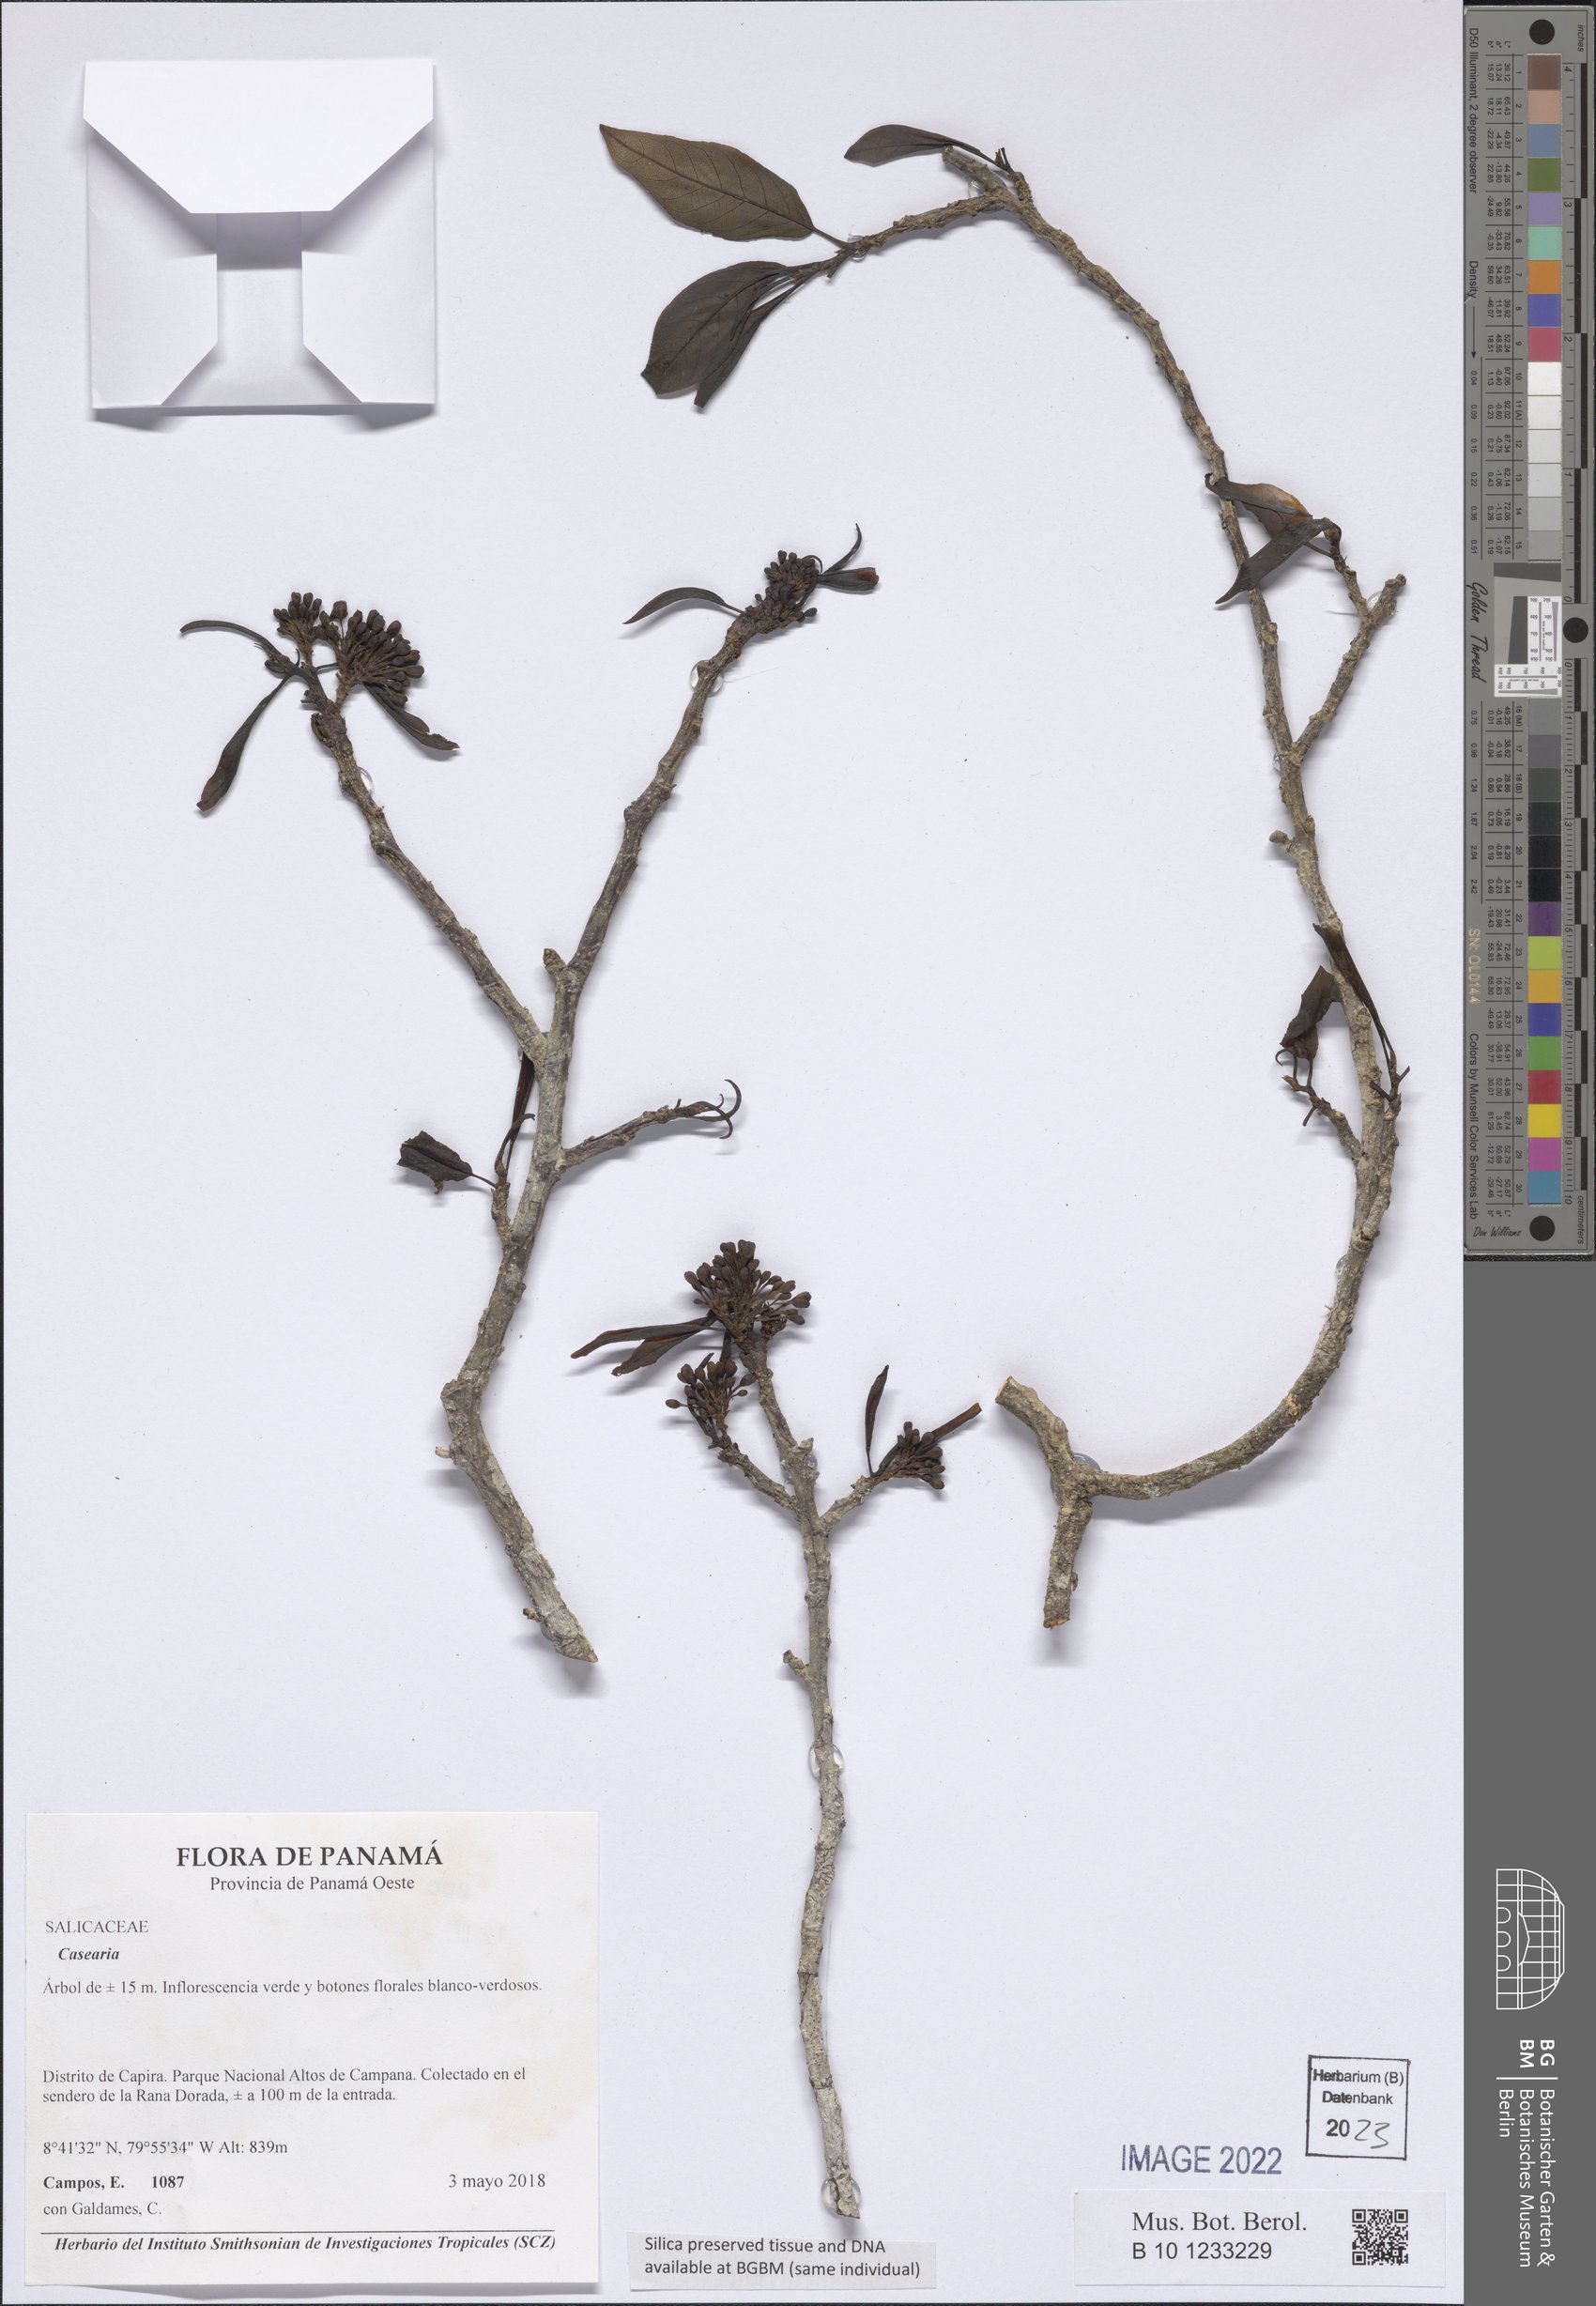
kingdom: Plantae
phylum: Tracheophyta
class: Magnoliopsida
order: Malpighiales
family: Salicaceae
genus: Casearia
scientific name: Casearia
